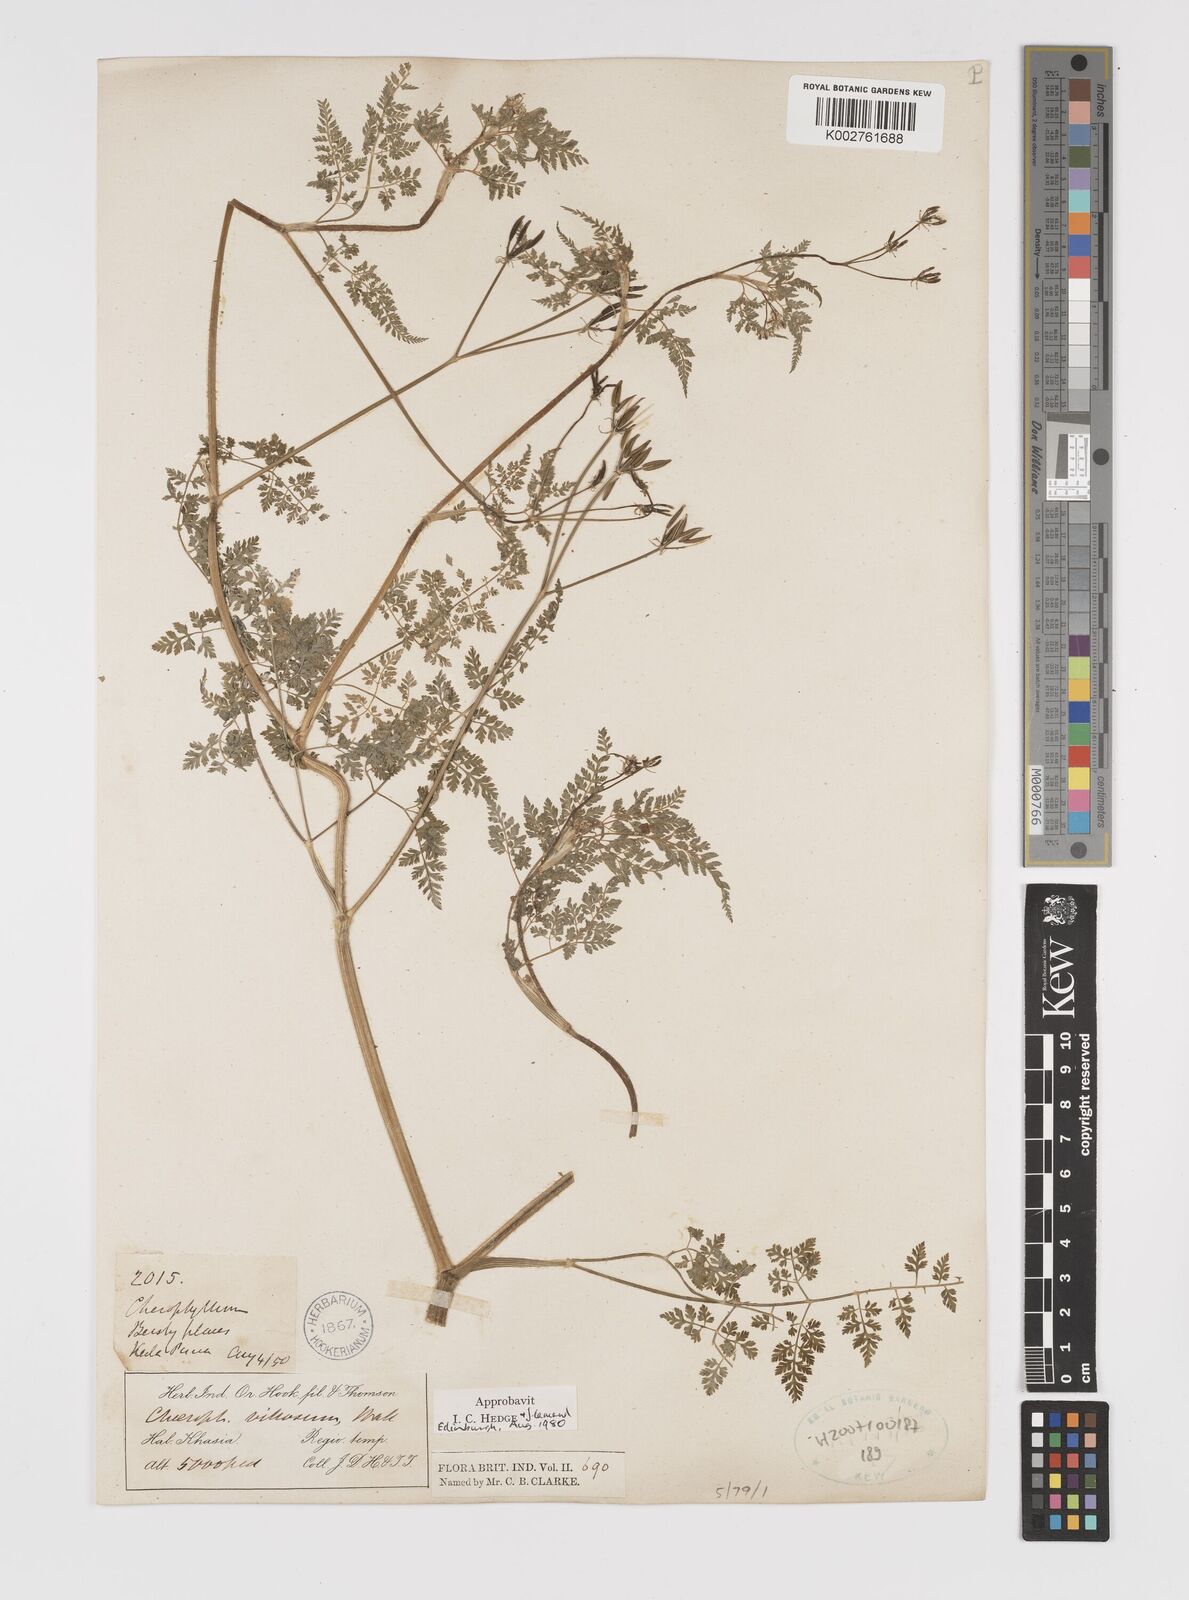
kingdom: Plantae
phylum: Tracheophyta
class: Magnoliopsida
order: Apiales
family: Apiaceae
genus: Chaerophyllum
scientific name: Chaerophyllum villosum
